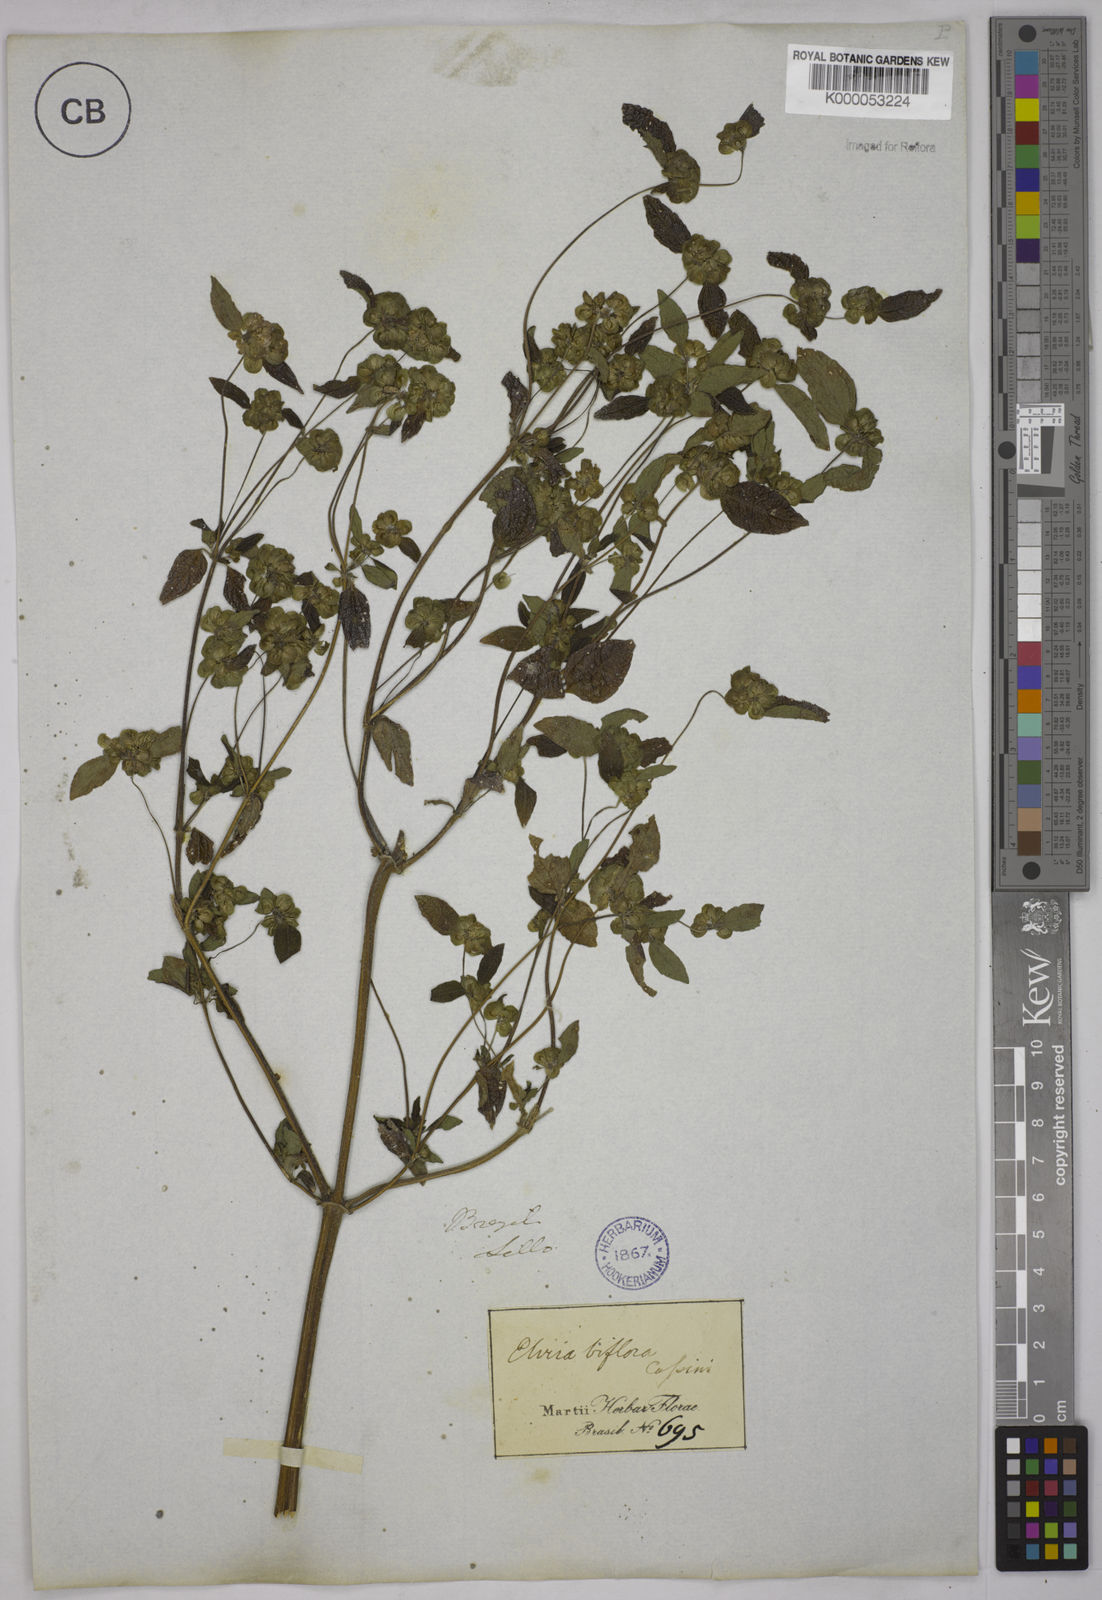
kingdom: Plantae
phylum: Tracheophyta
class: Magnoliopsida
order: Asterales
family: Asteraceae
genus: Delilia
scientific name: Delilia biflora
